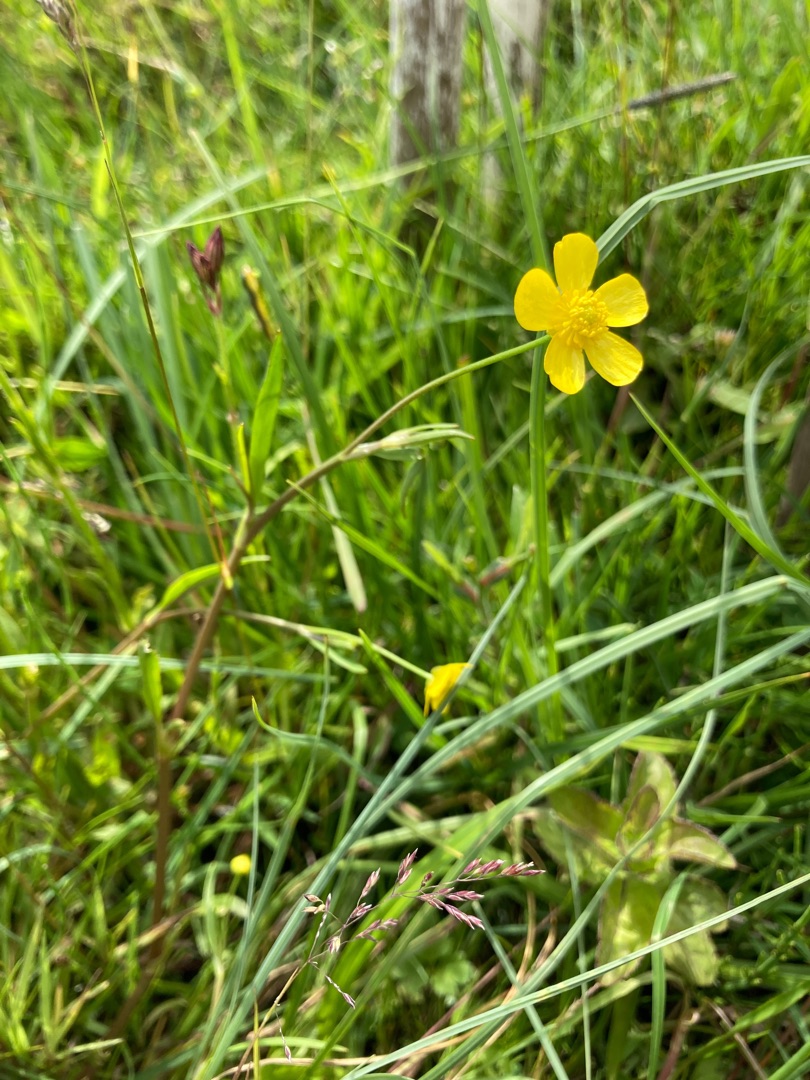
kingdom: Plantae
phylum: Tracheophyta
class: Magnoliopsida
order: Ranunculales
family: Ranunculaceae
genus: Ranunculus
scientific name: Ranunculus flammula
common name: Kær-ranunkel
